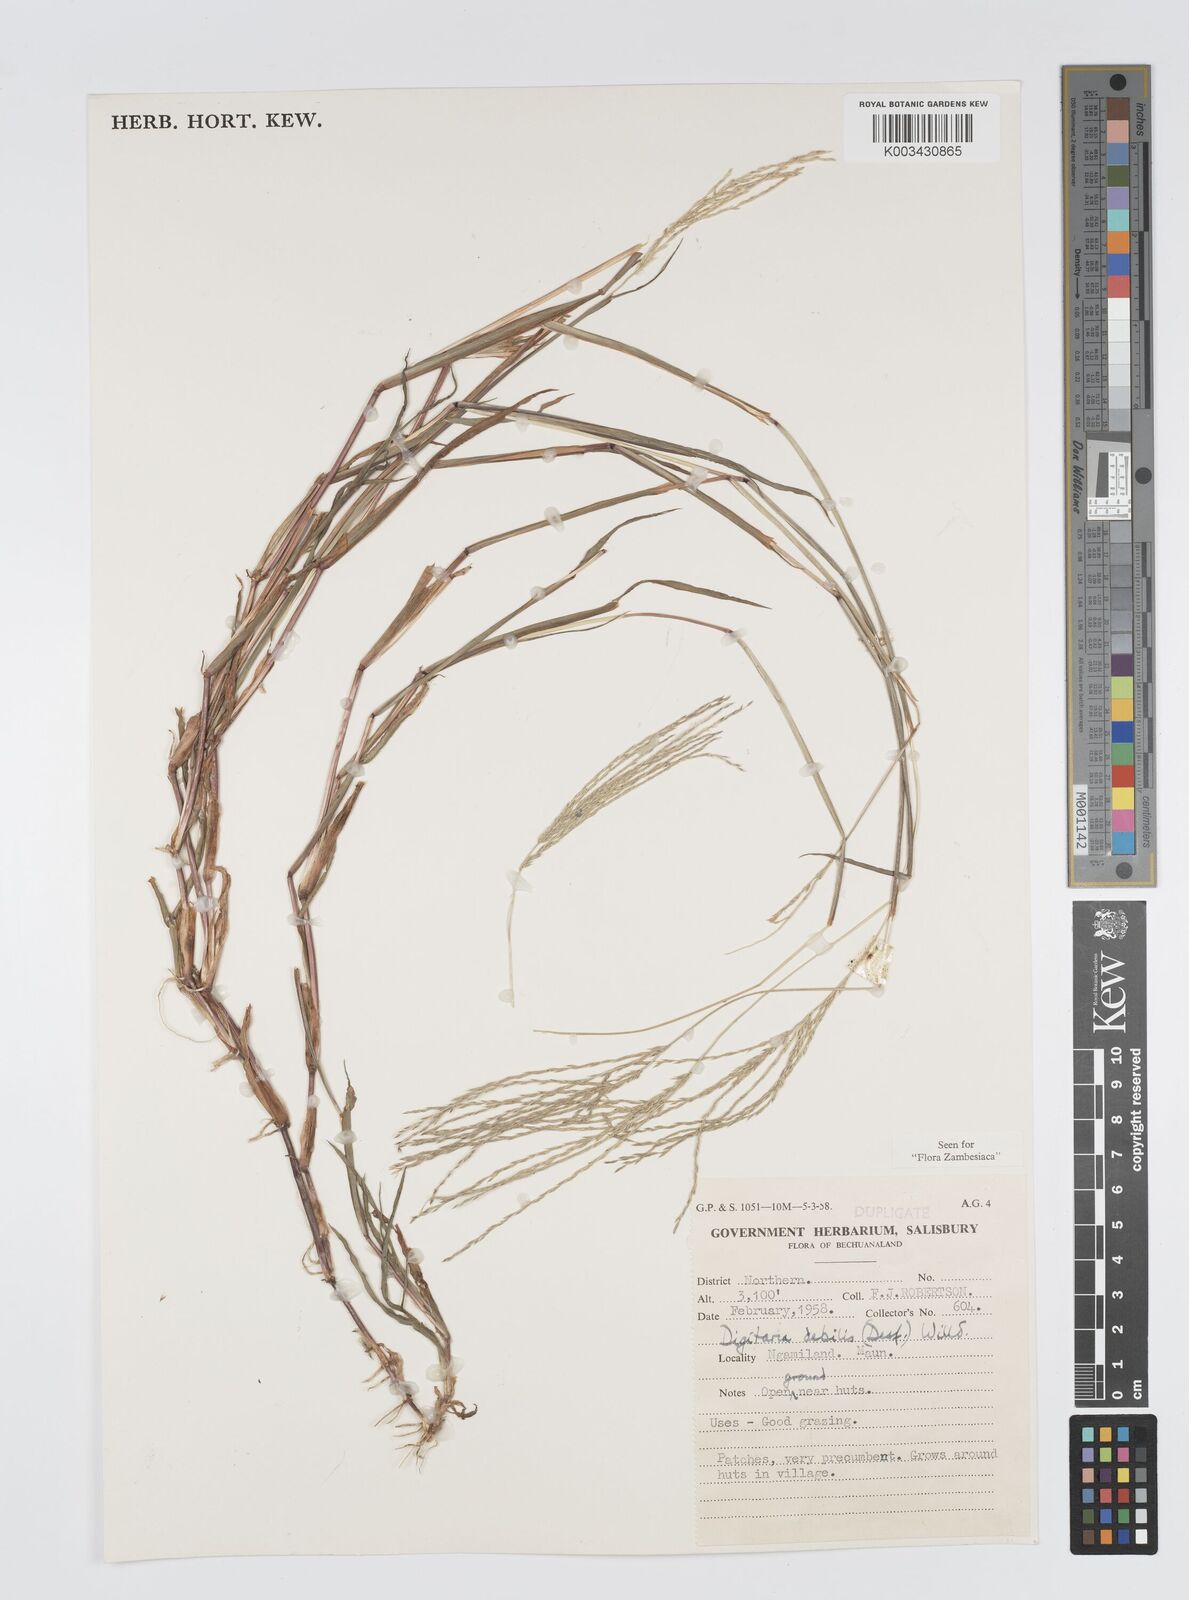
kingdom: Plantae
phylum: Tracheophyta
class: Liliopsida
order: Poales
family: Poaceae
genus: Digitaria
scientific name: Digitaria debilis
